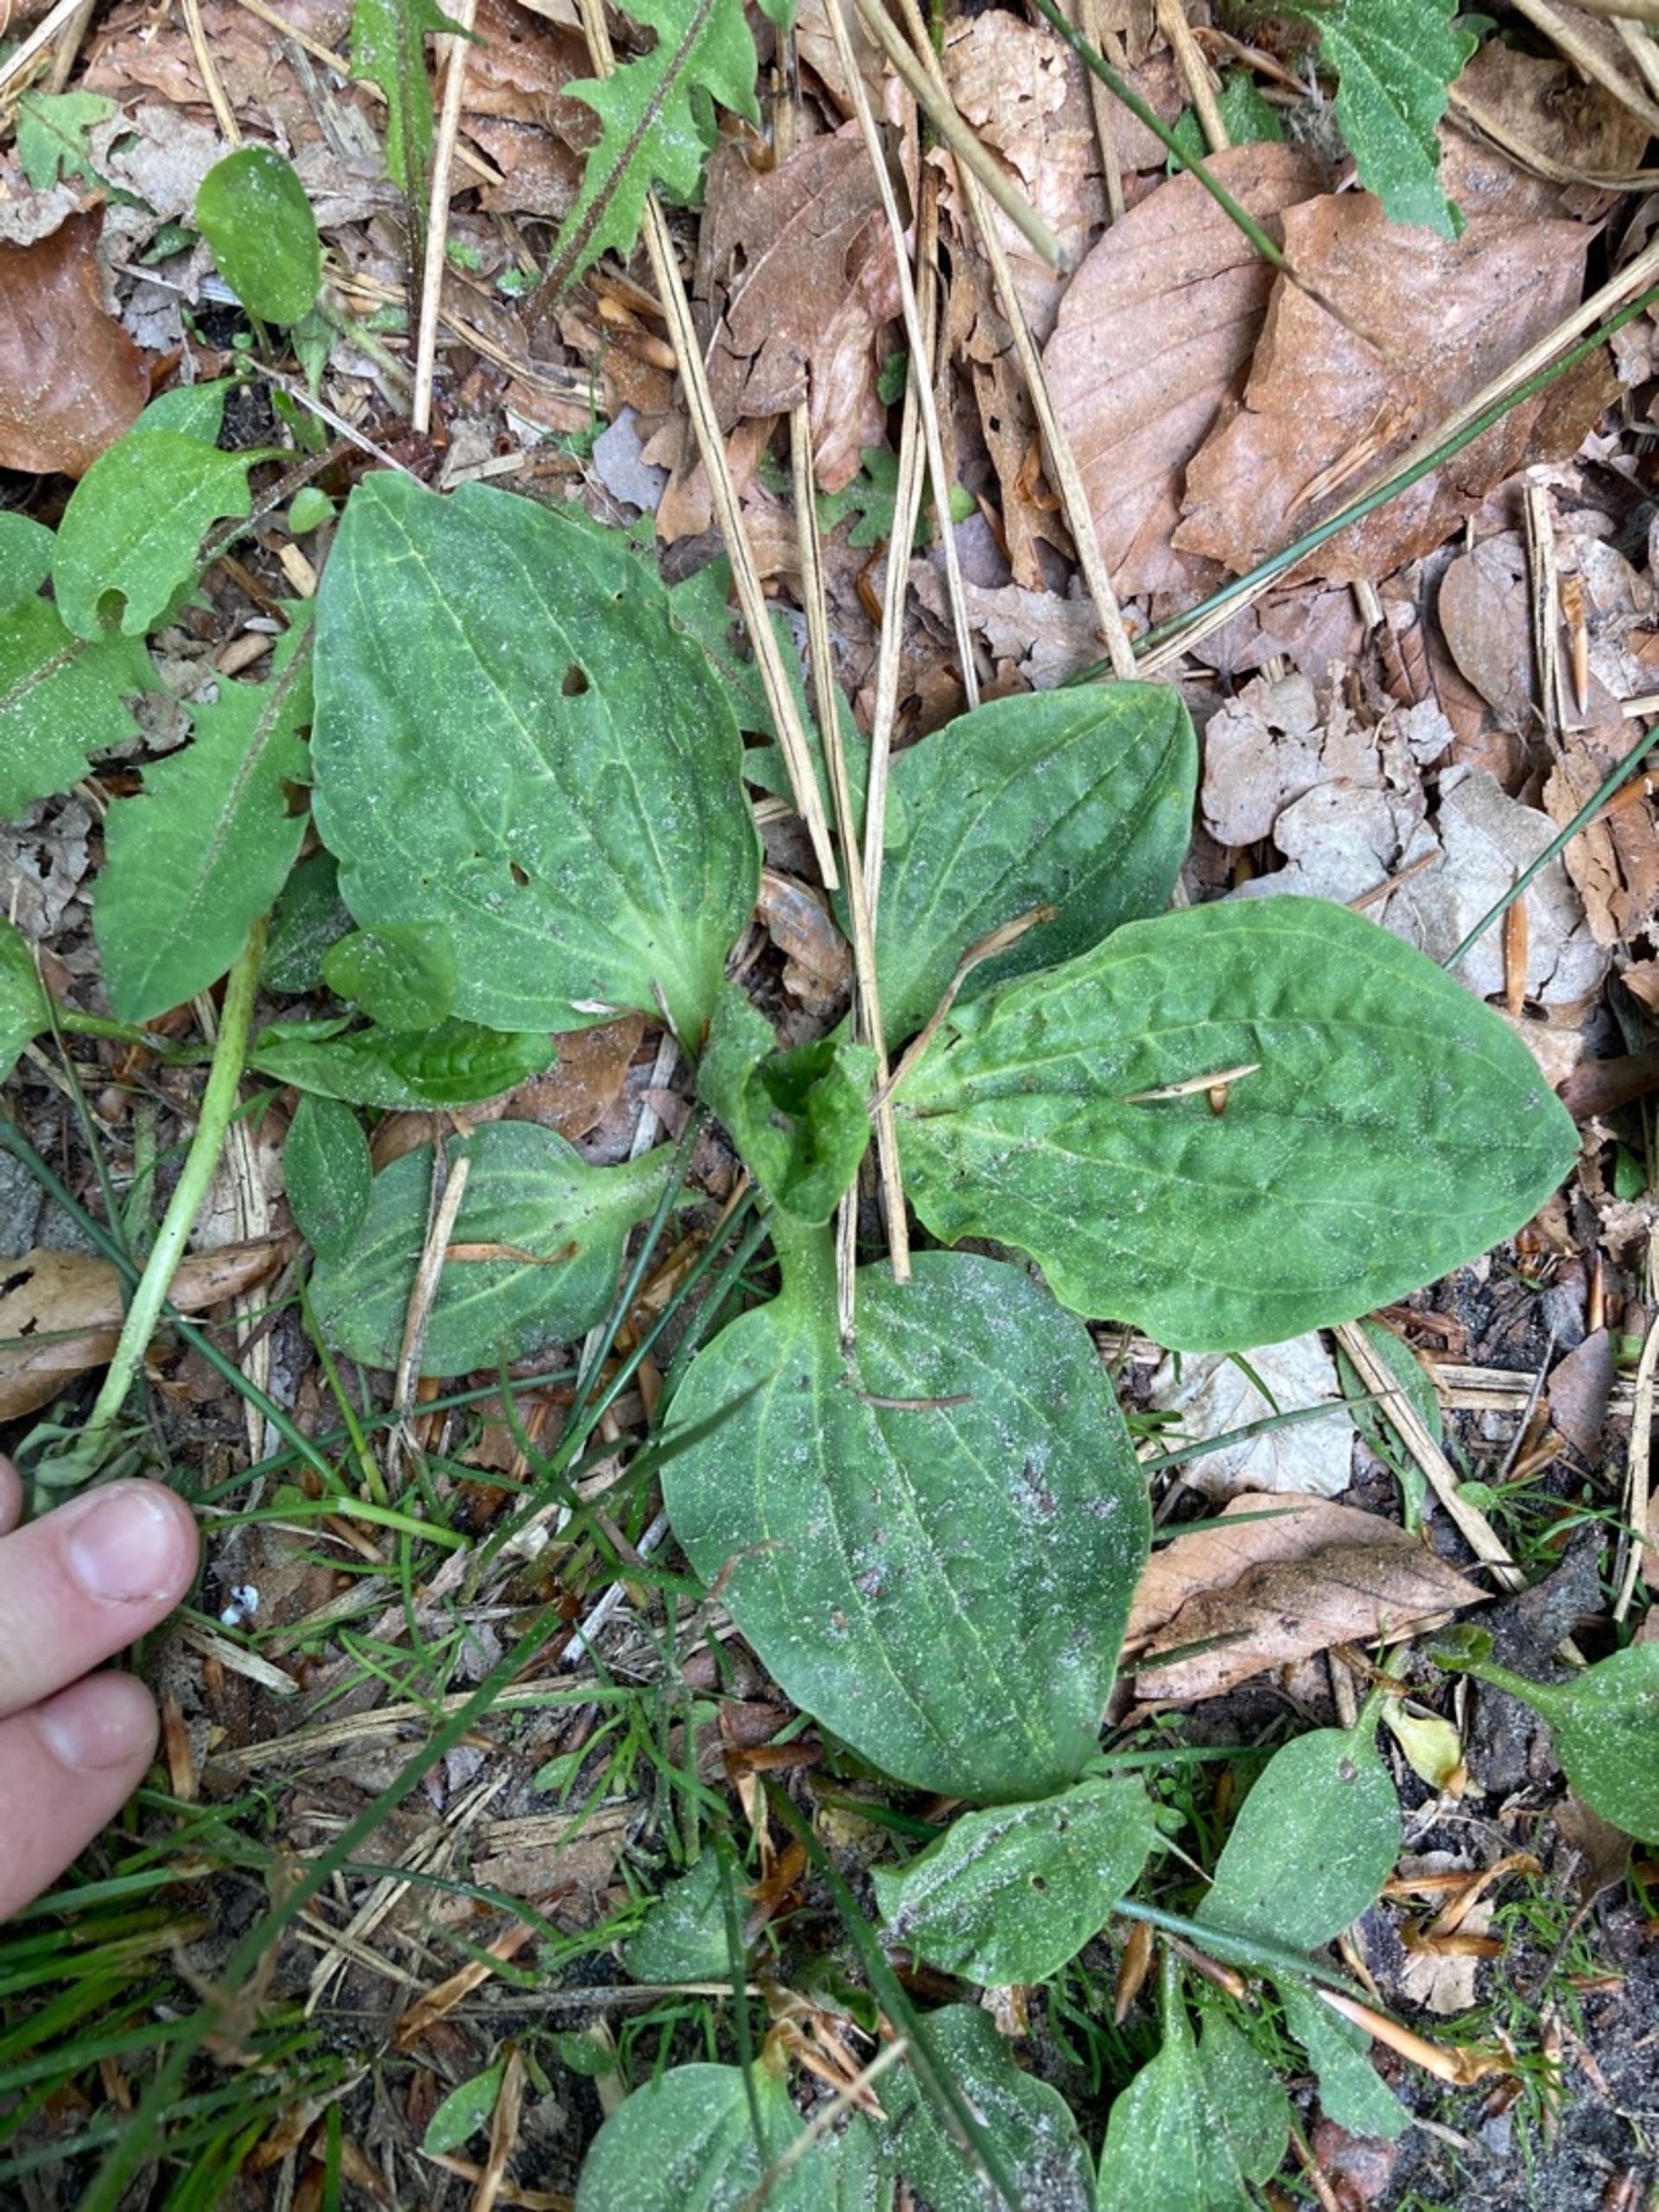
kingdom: Plantae
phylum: Tracheophyta
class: Magnoliopsida
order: Lamiales
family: Plantaginaceae
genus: Plantago
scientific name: Plantago major
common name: Glat vejbred
